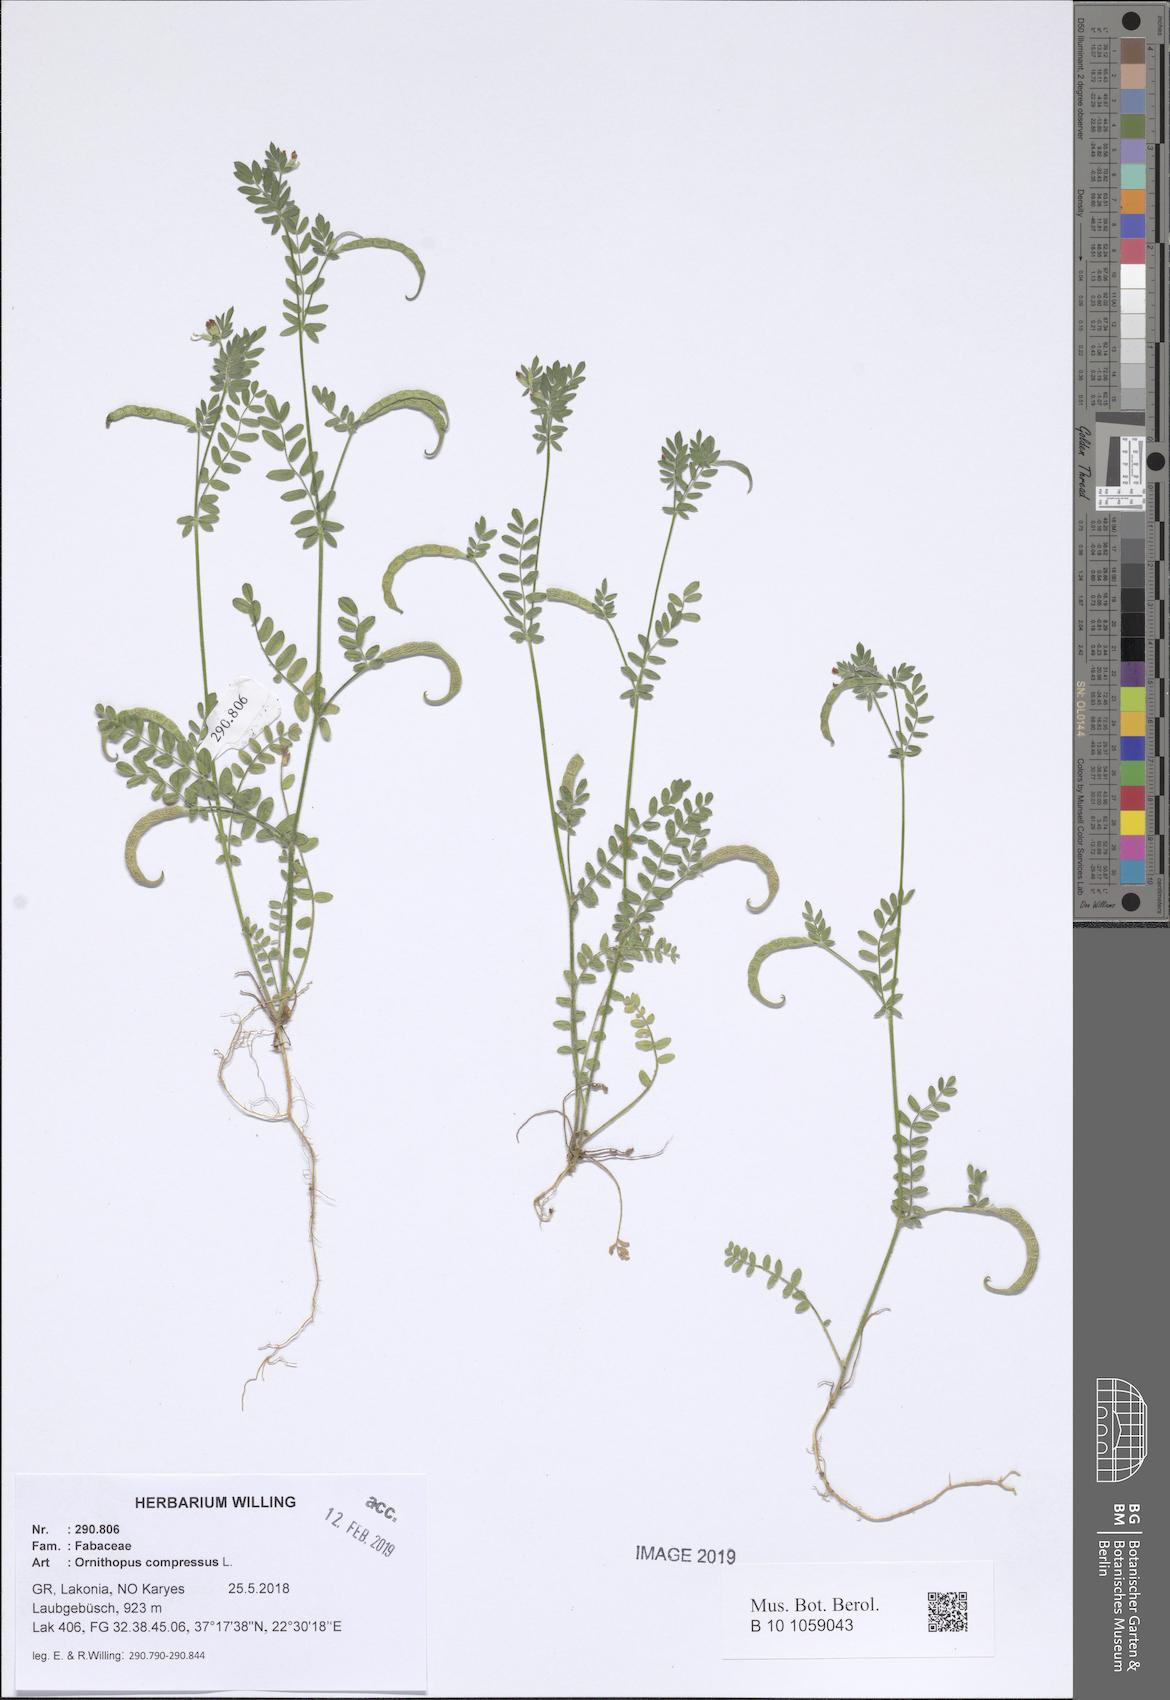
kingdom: Plantae
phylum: Tracheophyta
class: Magnoliopsida
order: Fabales
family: Fabaceae
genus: Ornithopus
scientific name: Ornithopus compressus
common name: Yellow serradella
